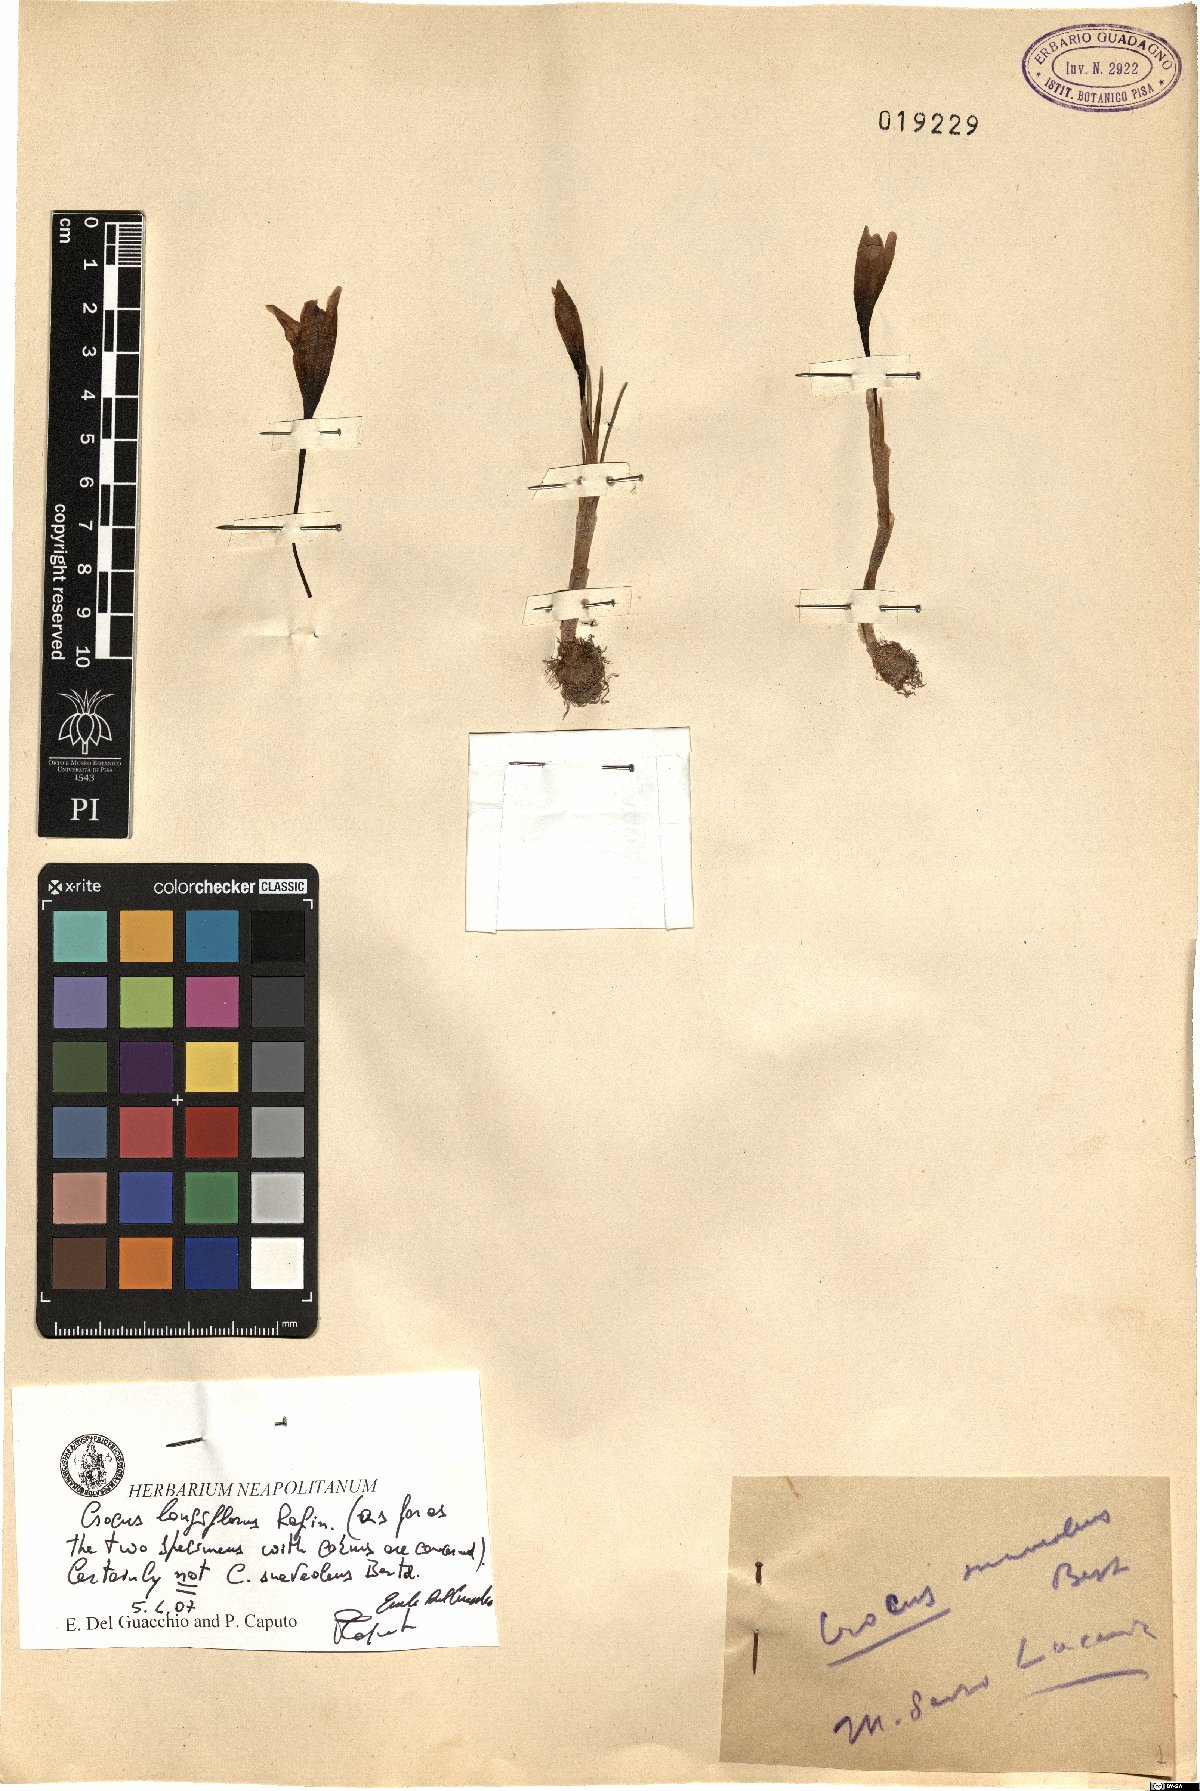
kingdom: Plantae
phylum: Tracheophyta
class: Liliopsida
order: Asparagales
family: Iridaceae
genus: Crocus
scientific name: Crocus longiflorus
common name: Italian crocus
